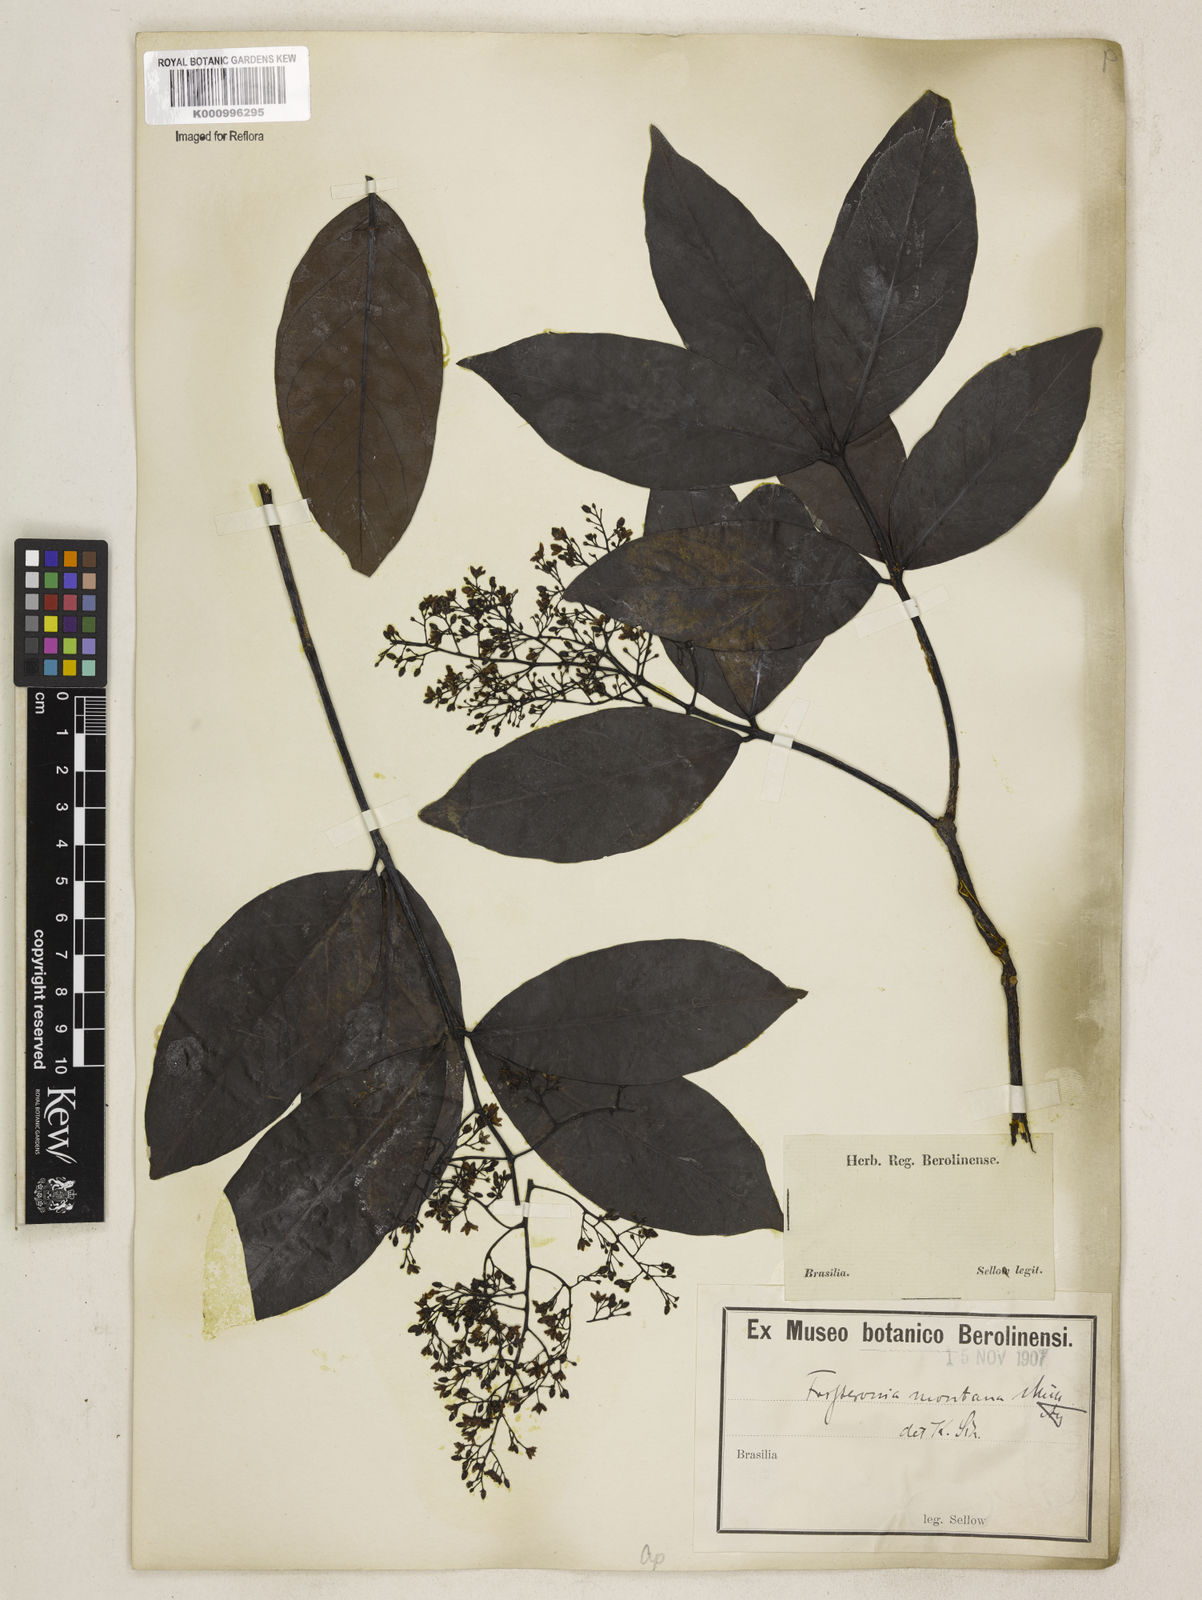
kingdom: Plantae
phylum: Tracheophyta
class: Magnoliopsida
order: Gentianales
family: Apocynaceae
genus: Forsteronia
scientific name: Forsteronia
